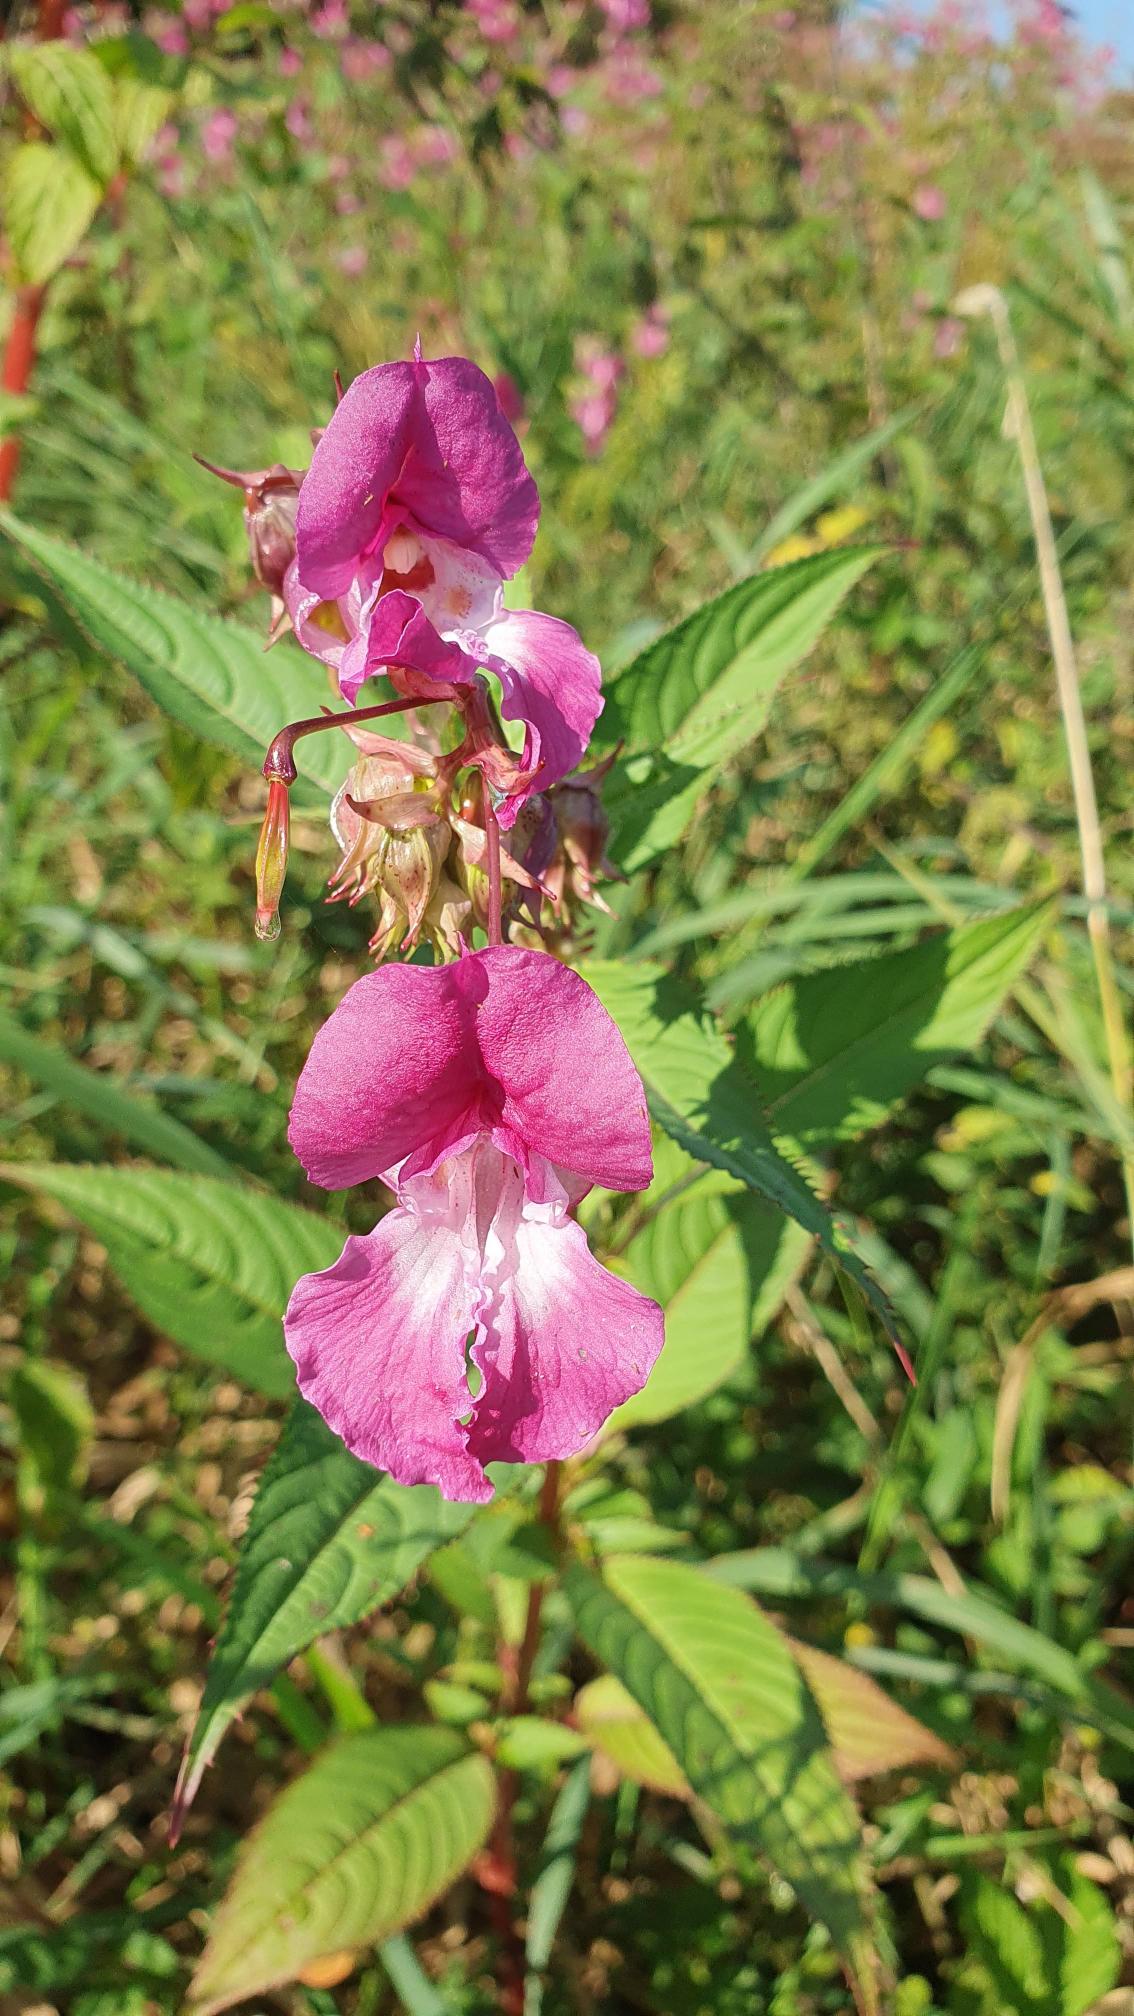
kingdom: Plantae
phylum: Tracheophyta
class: Magnoliopsida
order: Ericales
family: Balsaminaceae
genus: Impatiens
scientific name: Impatiens glandulifera
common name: Kæmpe-balsamin
